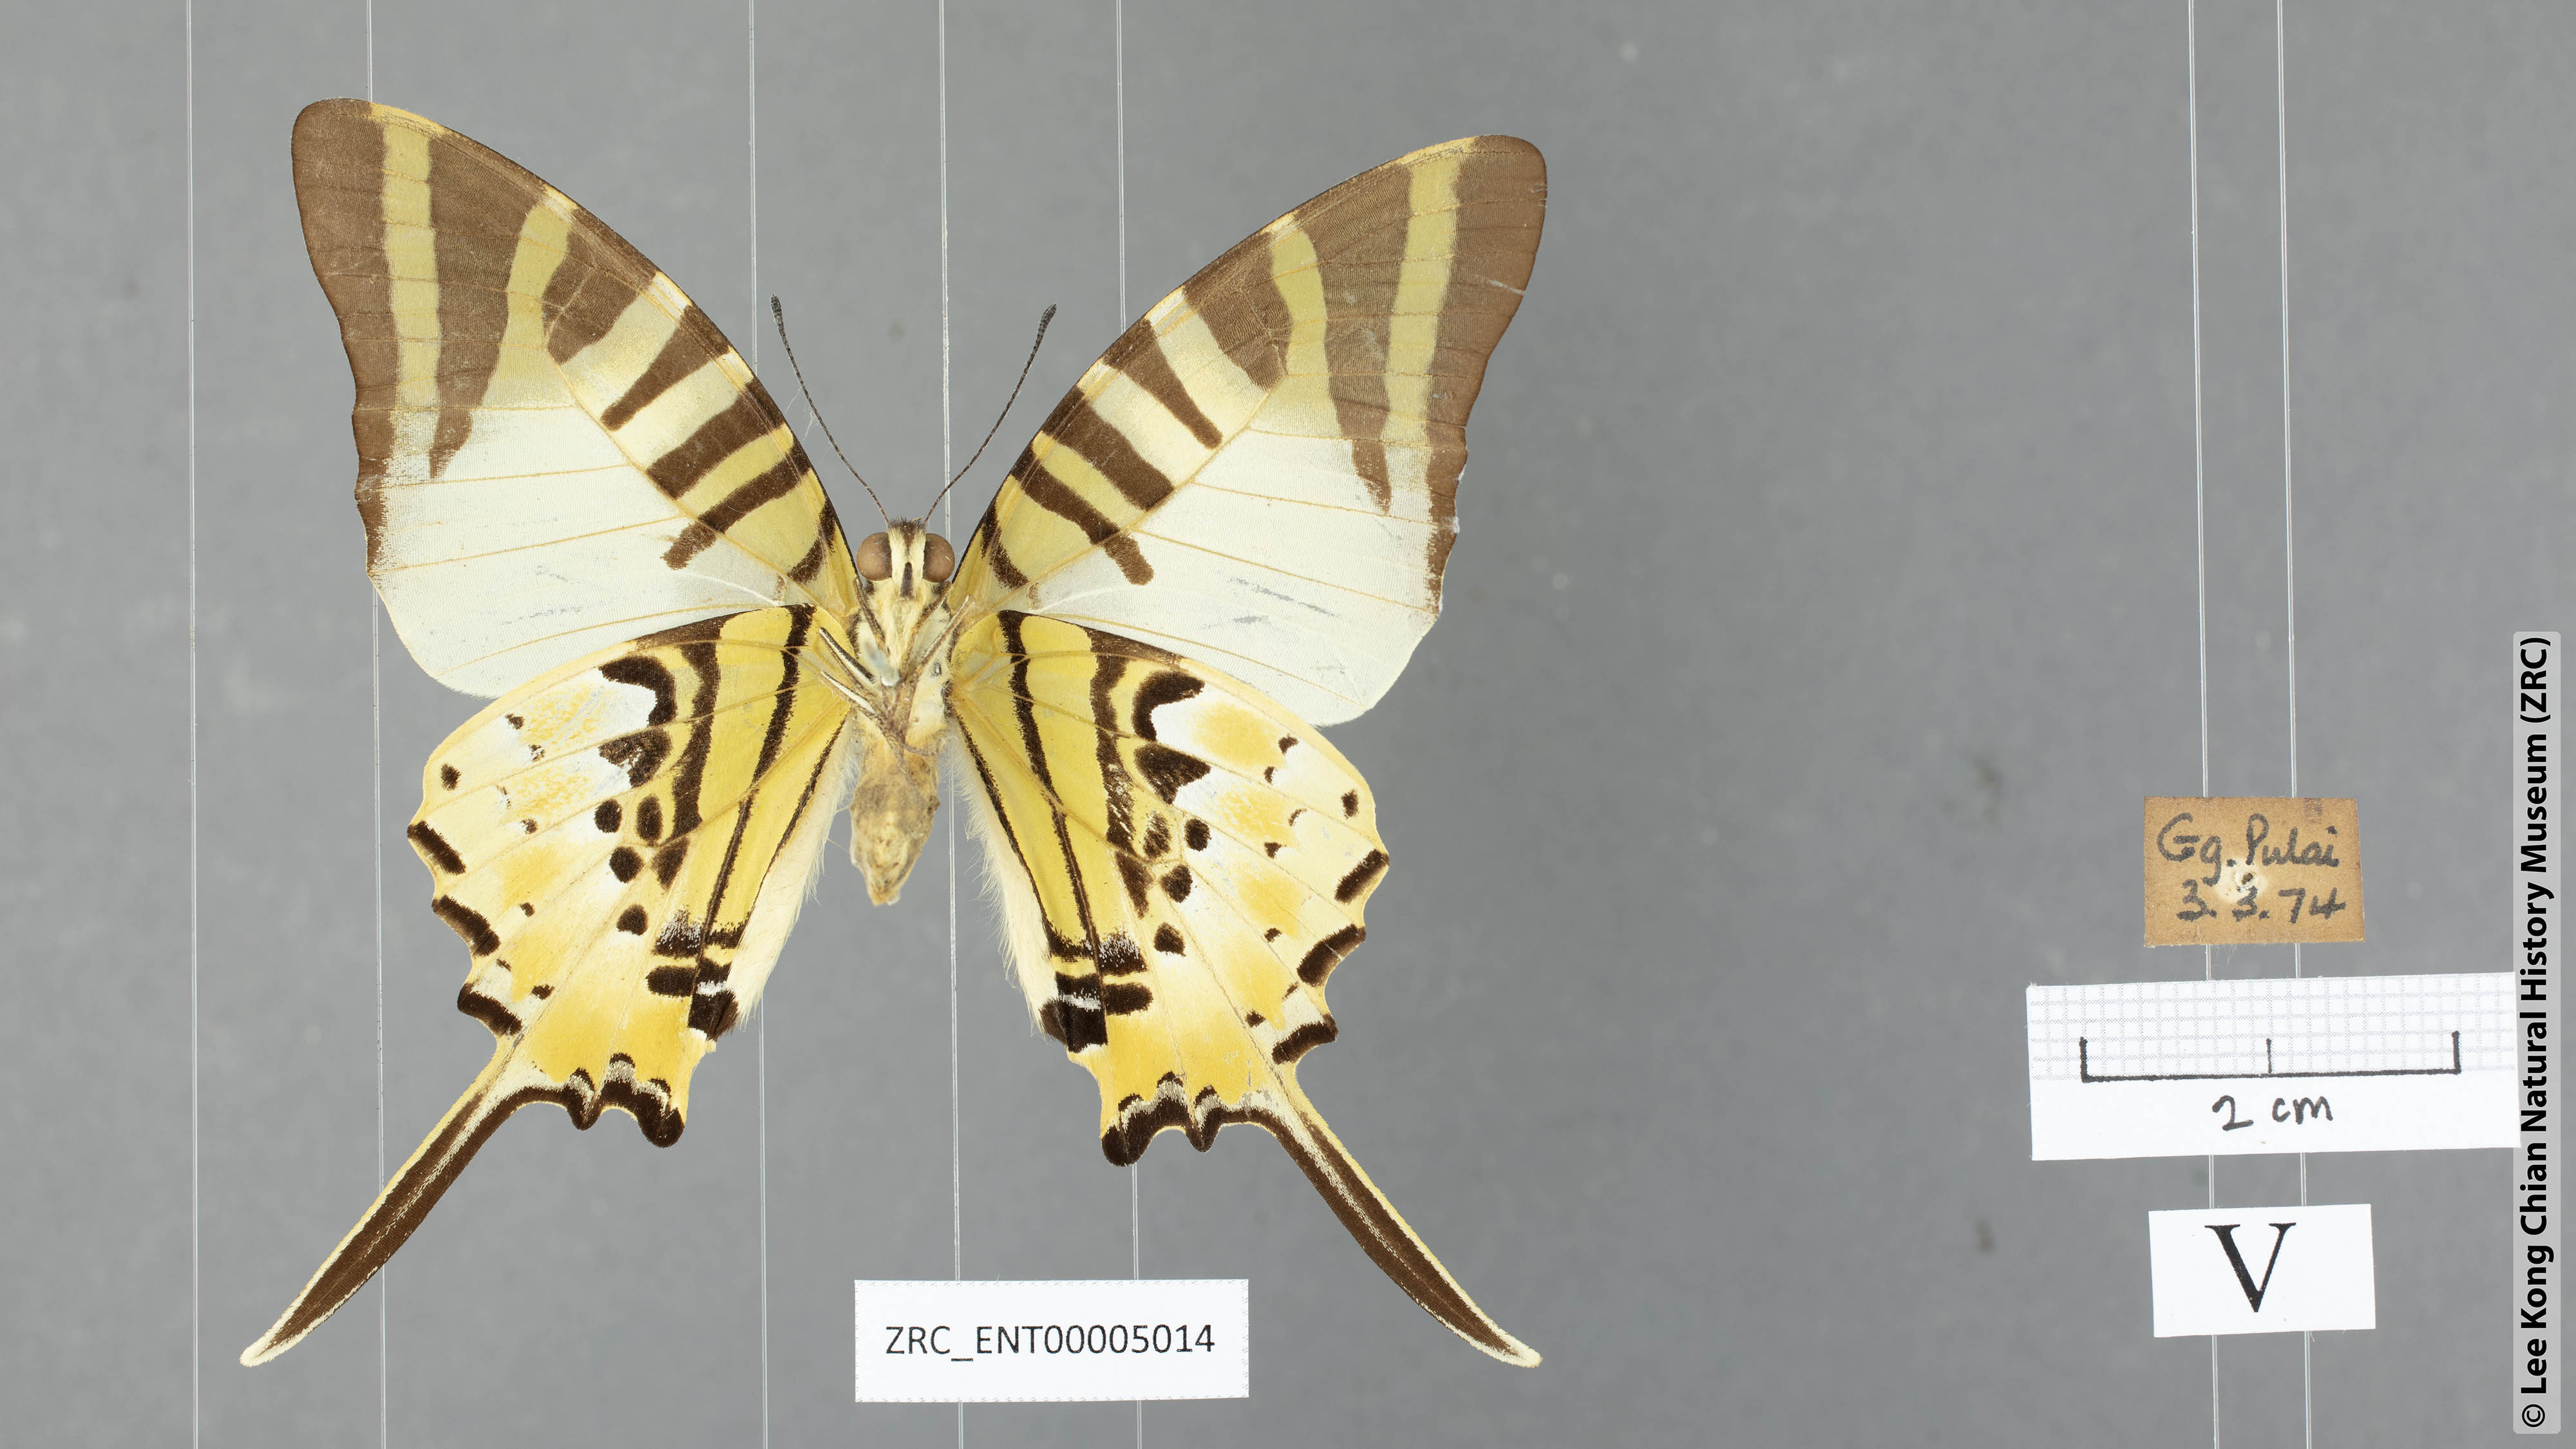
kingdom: Animalia
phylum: Arthropoda
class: Insecta
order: Lepidoptera
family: Papilionidae
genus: Graphium
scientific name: Graphium antiphates
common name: Fivebar swordtail
